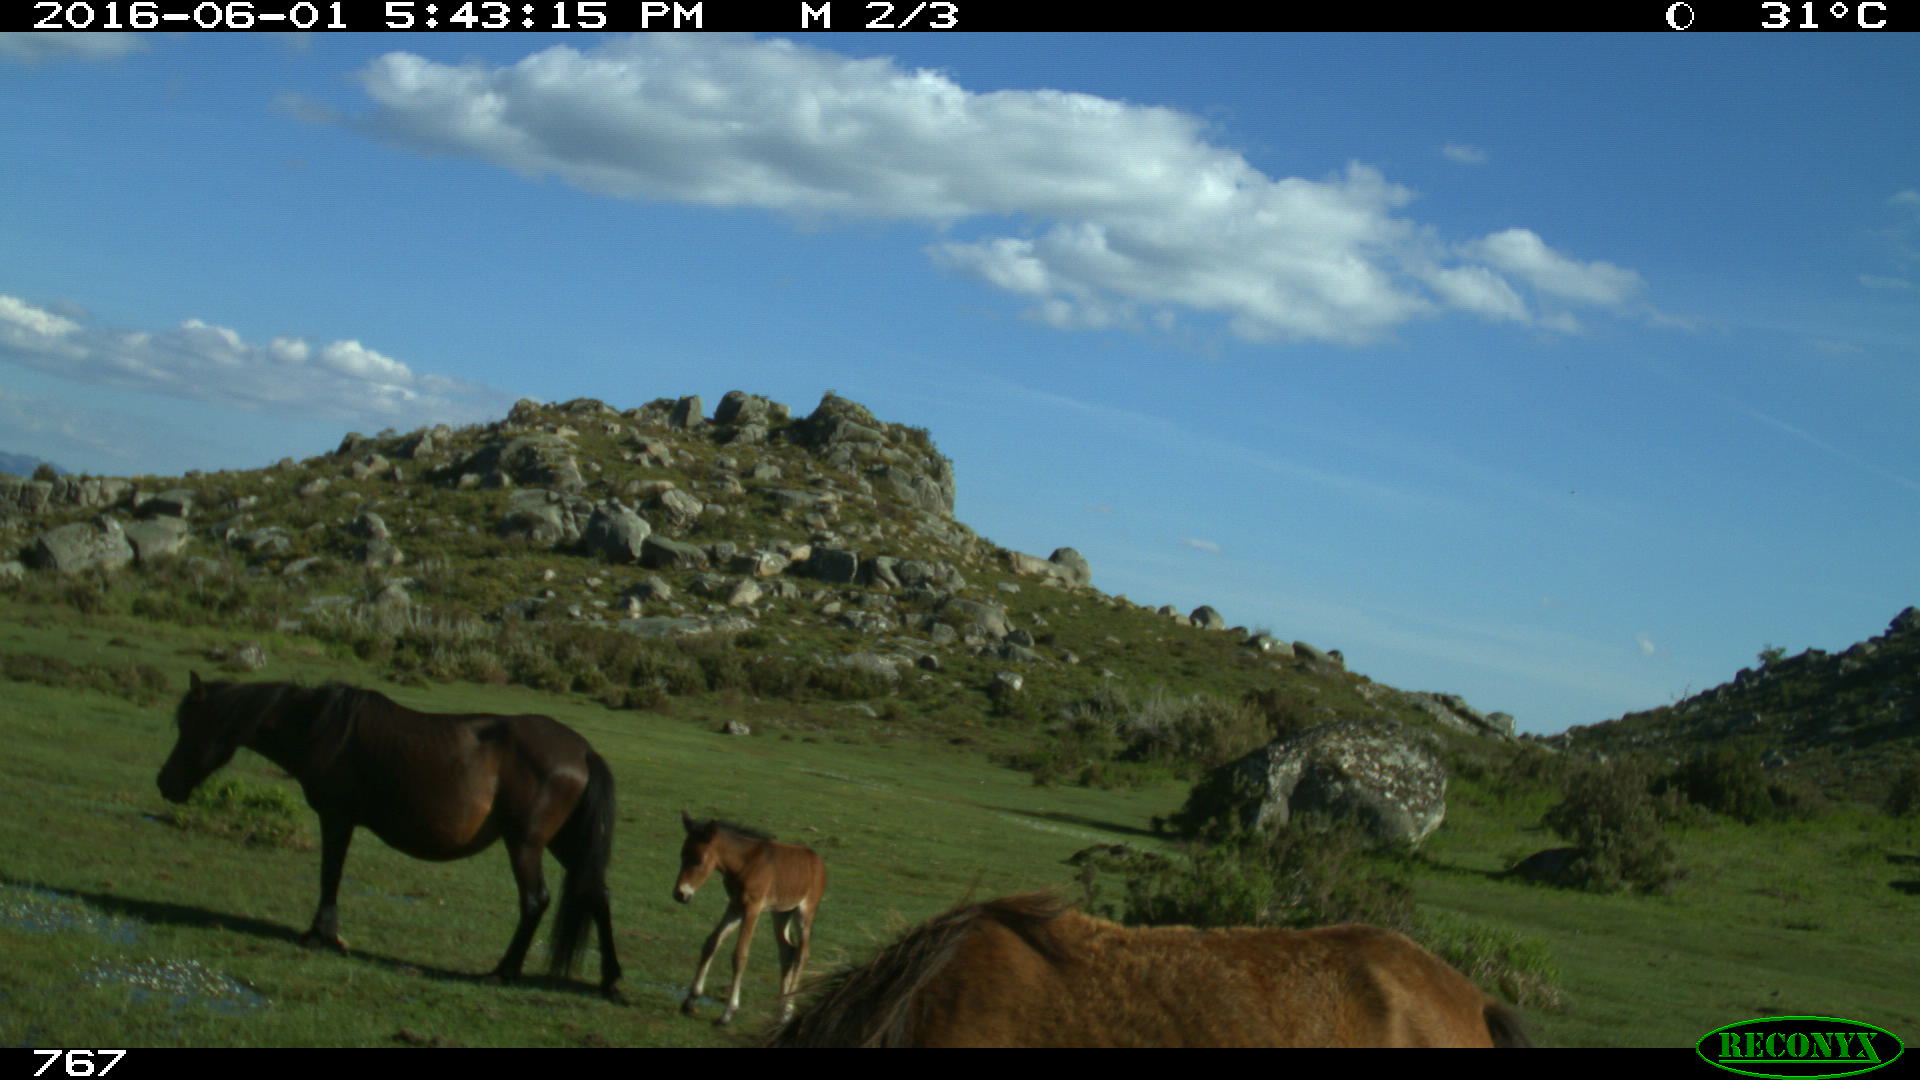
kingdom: Animalia
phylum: Chordata
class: Mammalia
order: Perissodactyla
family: Equidae
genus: Equus
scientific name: Equus caballus
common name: Horse
